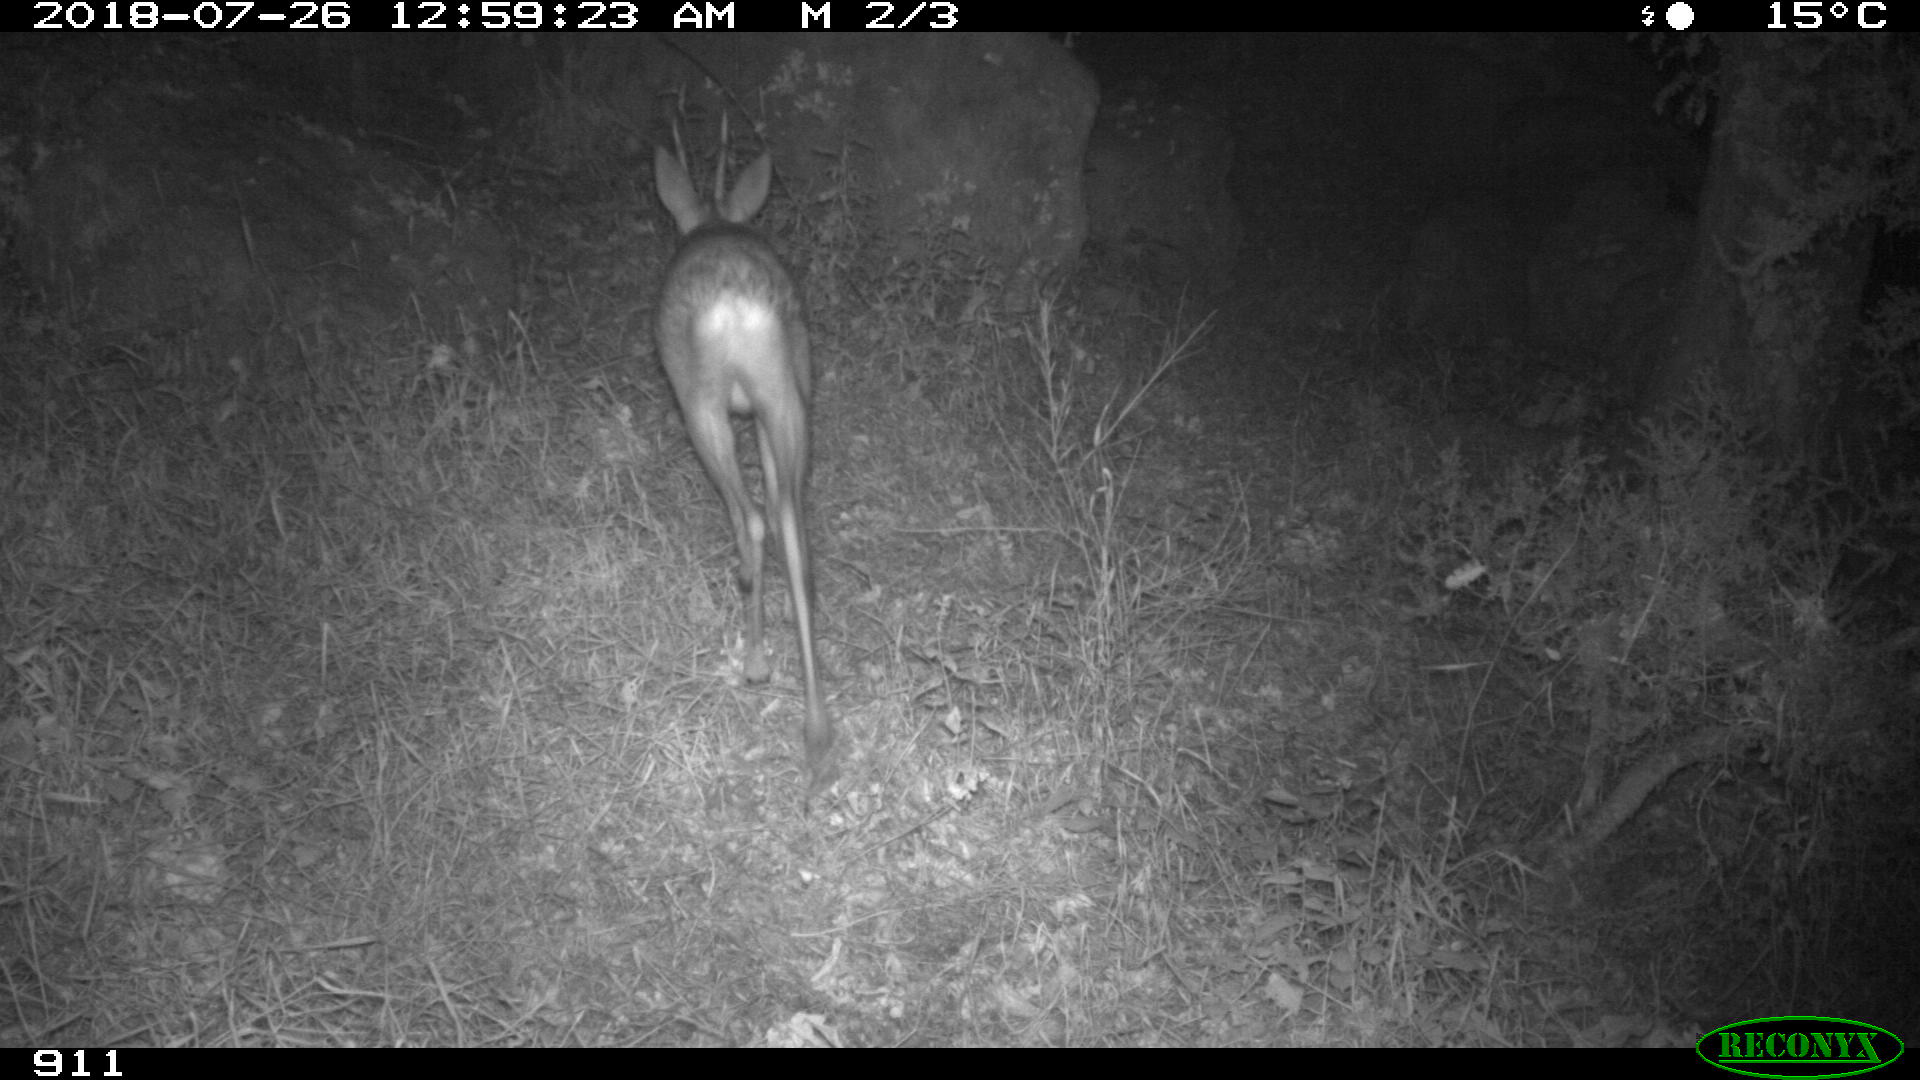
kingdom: Animalia
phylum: Chordata
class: Mammalia
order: Artiodactyla
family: Cervidae
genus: Capreolus
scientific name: Capreolus capreolus
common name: Western roe deer
